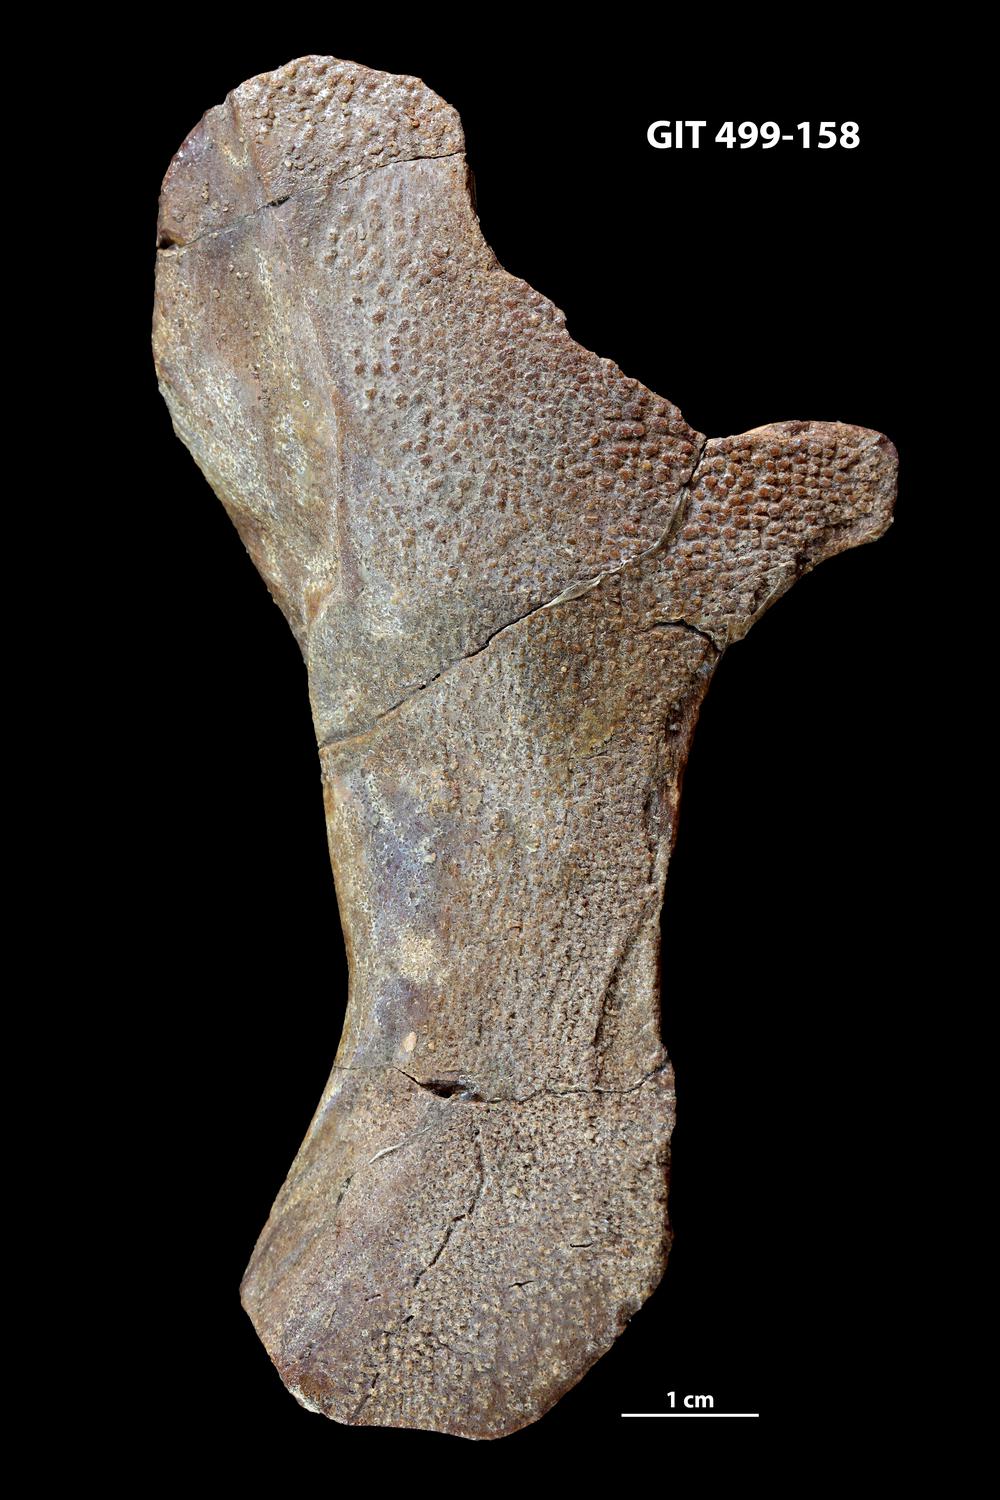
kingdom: Animalia
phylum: Chordata
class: Coelacanthi
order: Coelacanthiformes
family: Miguashaiidae
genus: Miguashaia
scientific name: Miguashaia grossi
